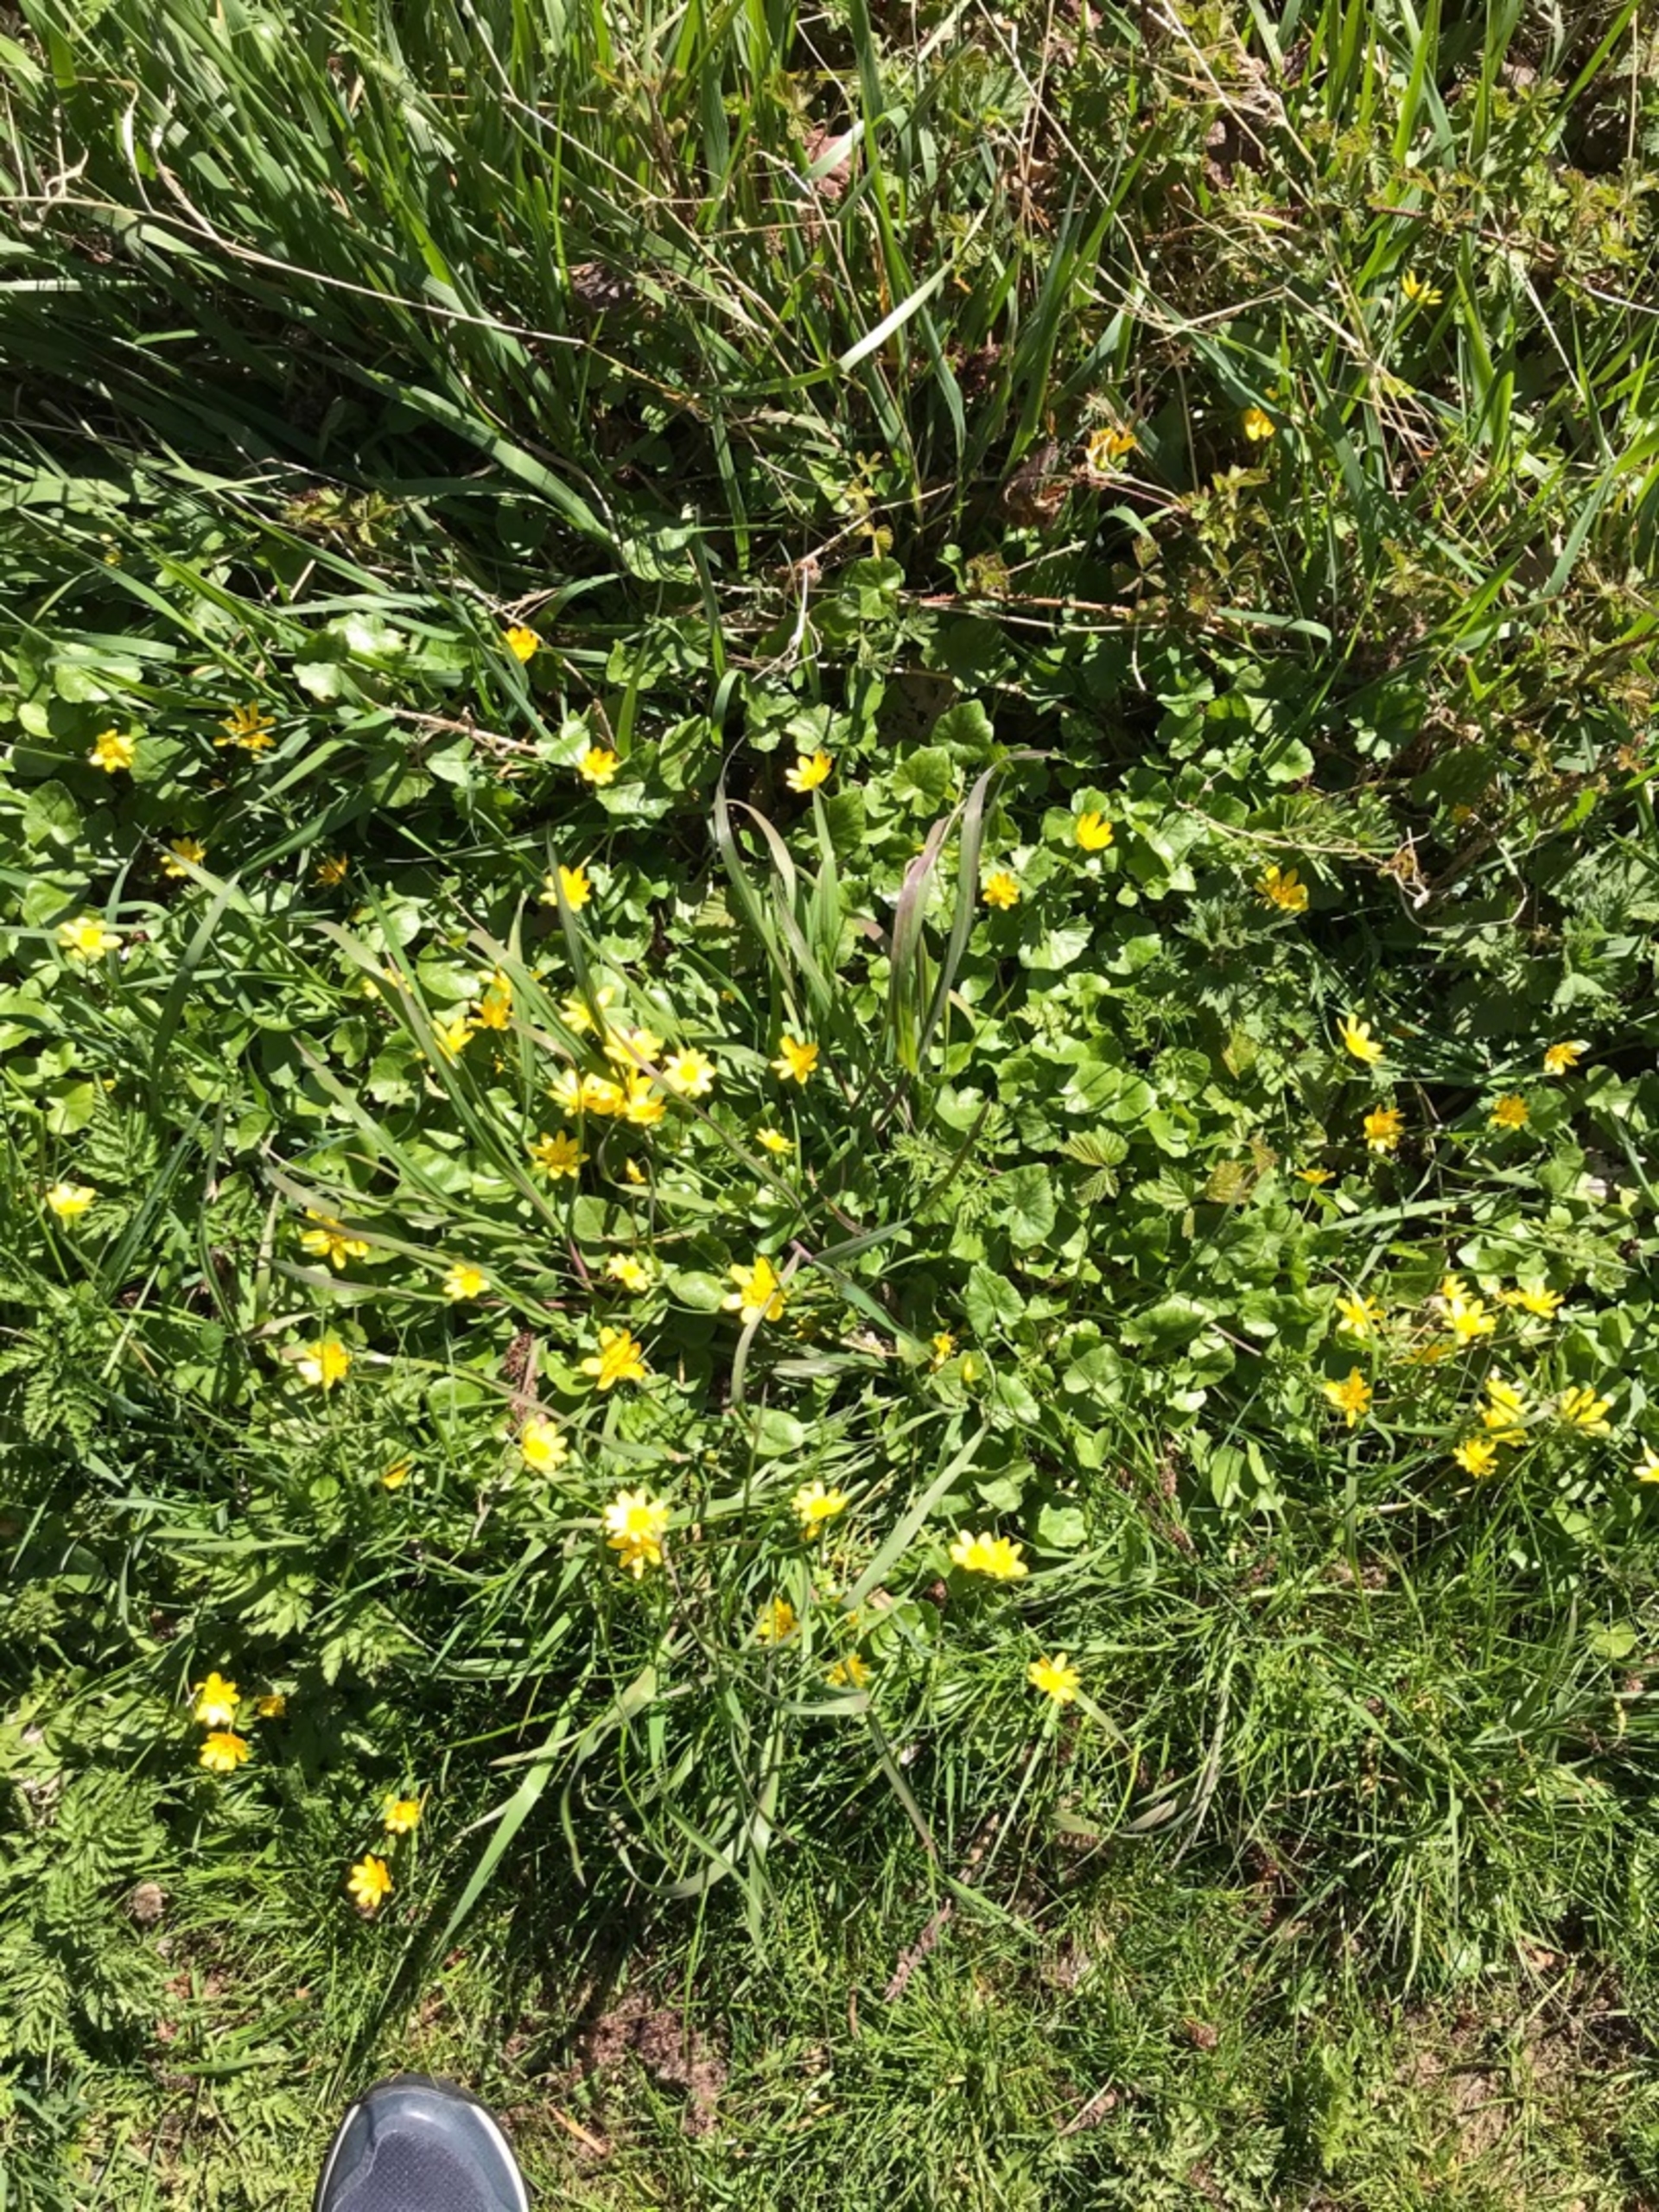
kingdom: Plantae
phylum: Tracheophyta
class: Magnoliopsida
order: Ranunculales
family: Ranunculaceae
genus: Ficaria
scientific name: Ficaria verna
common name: Vorterod
